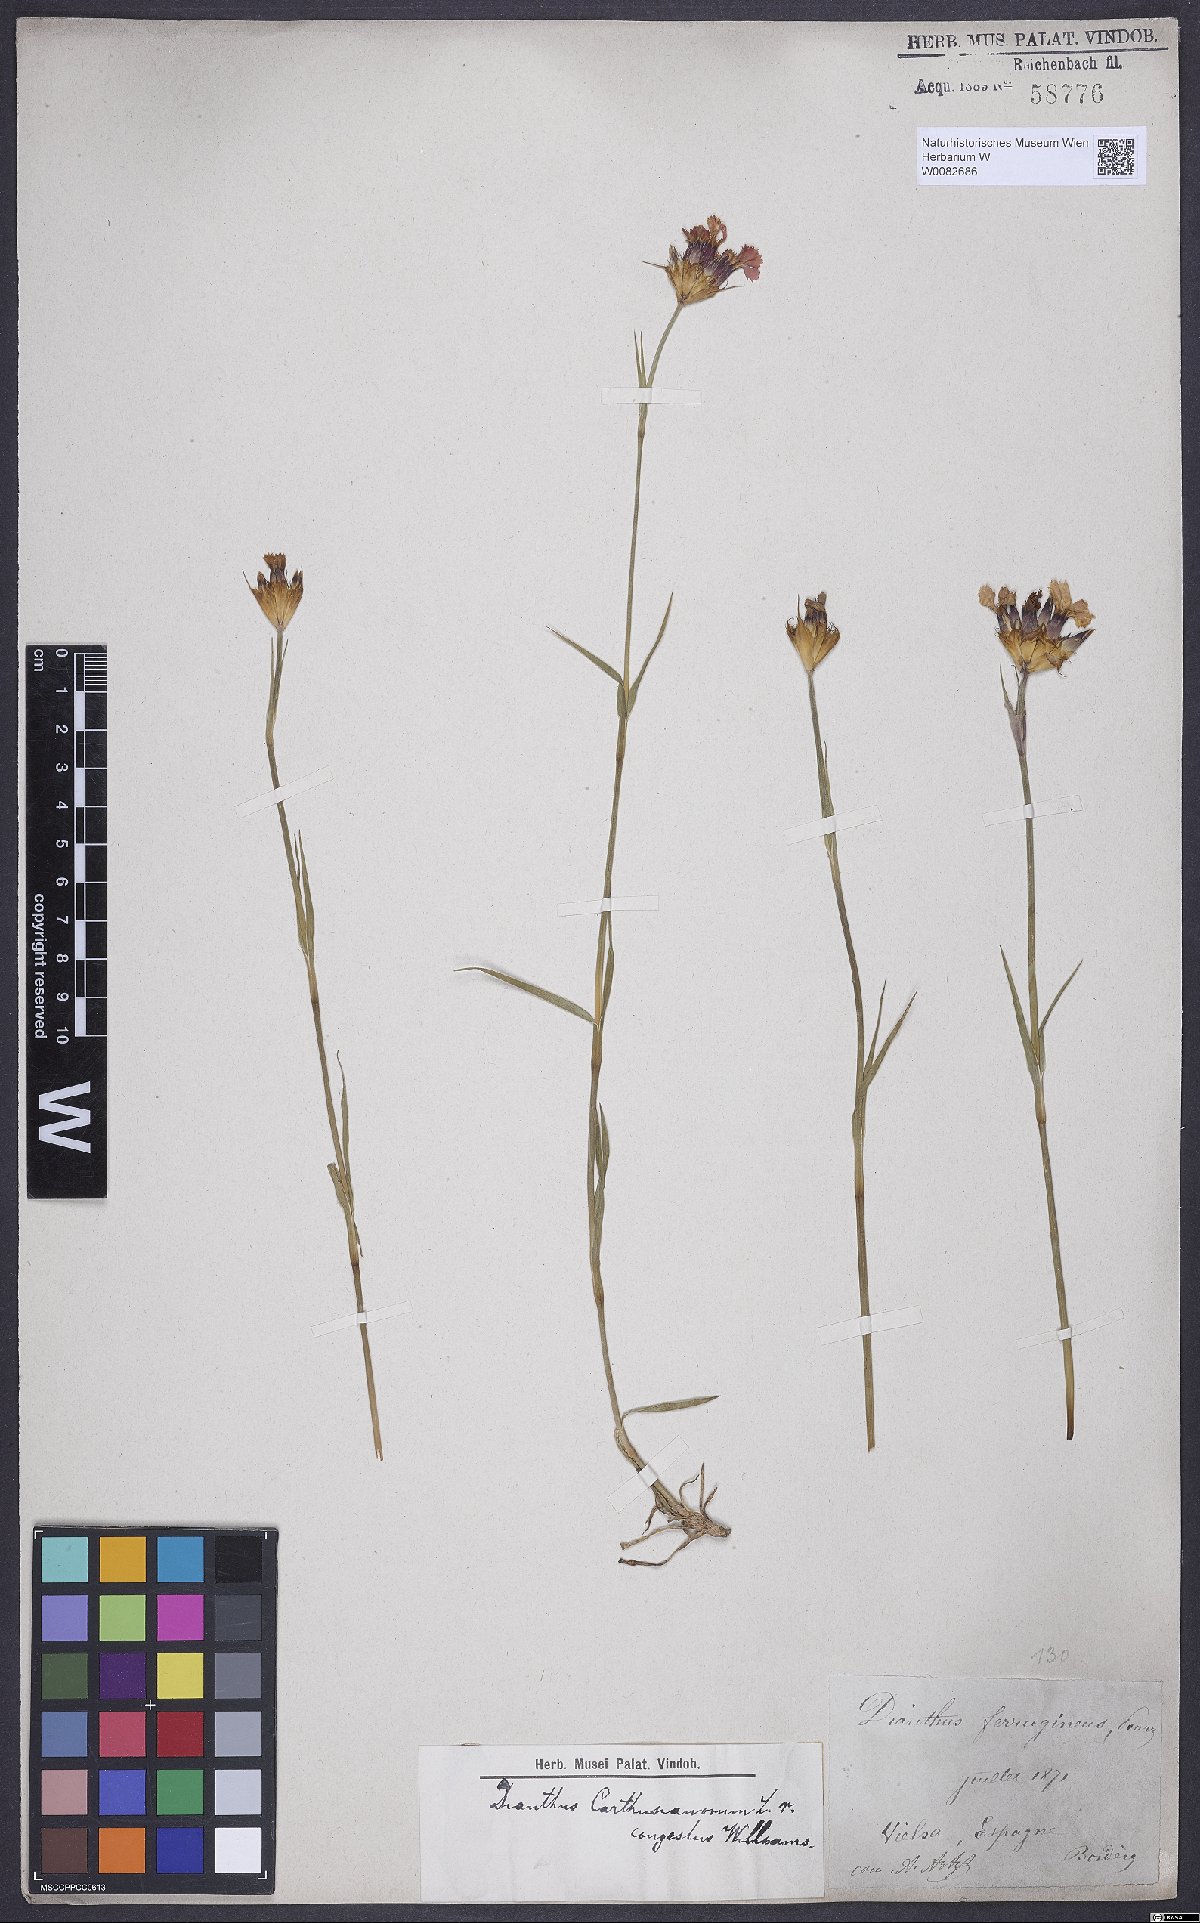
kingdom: Plantae
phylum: Tracheophyta
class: Magnoliopsida
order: Caryophyllales
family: Caryophyllaceae
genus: Dianthus
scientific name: Dianthus carthusianorum
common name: Carthusian pink
